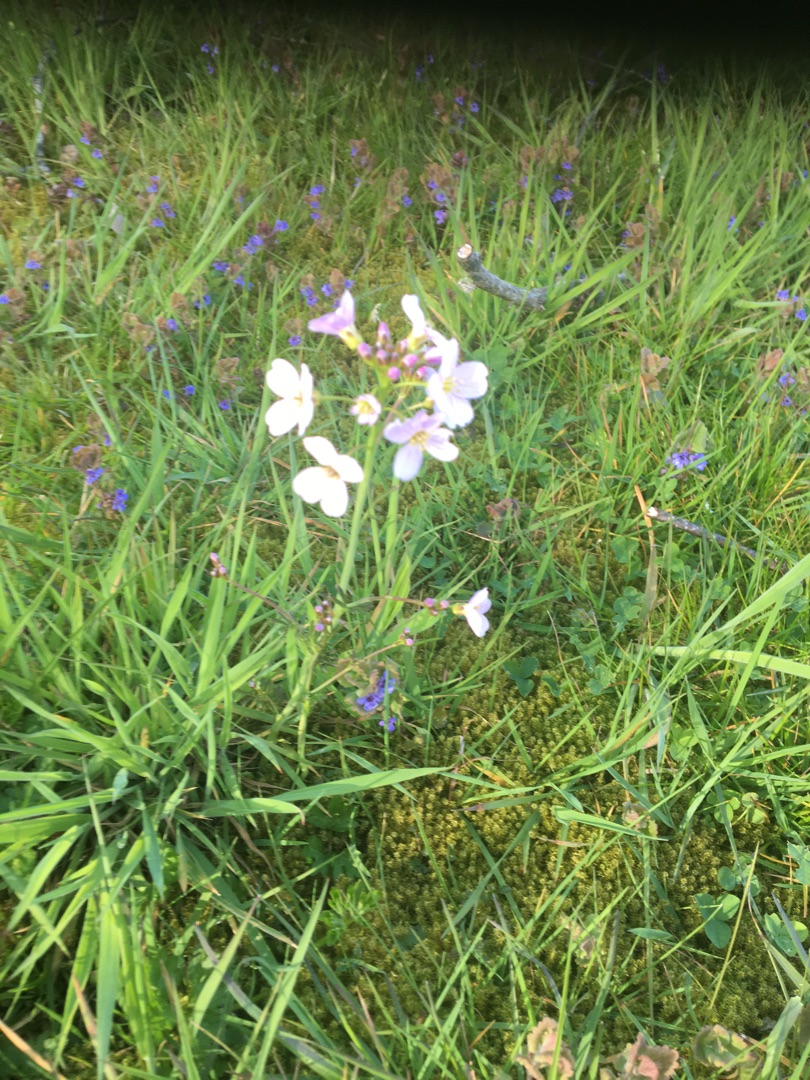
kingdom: Plantae
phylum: Tracheophyta
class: Magnoliopsida
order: Brassicales
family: Brassicaceae
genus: Cardamine
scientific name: Cardamine pratensis
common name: Engkarse
